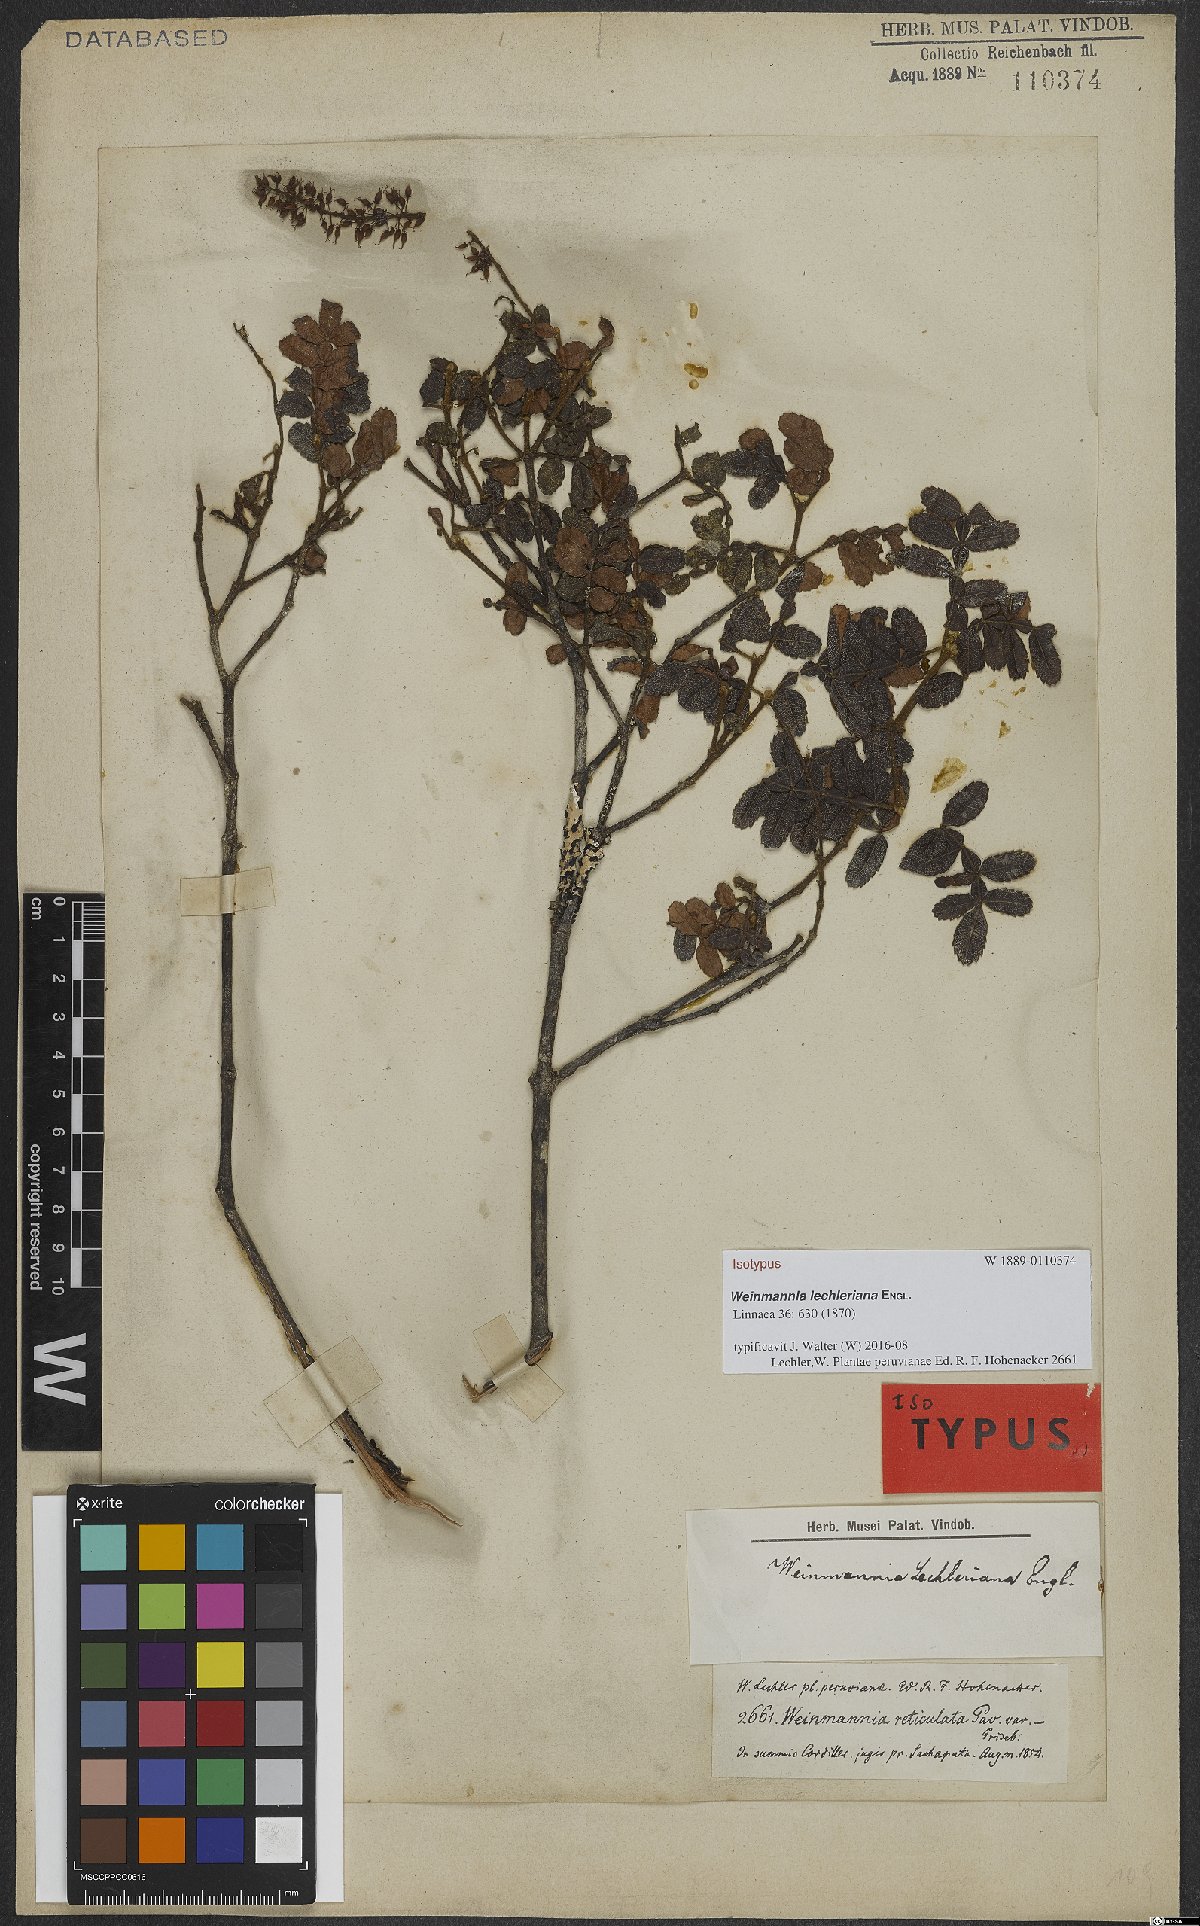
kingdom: Plantae
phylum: Tracheophyta
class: Magnoliopsida
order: Oxalidales
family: Cunoniaceae
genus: Weinmannia
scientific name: Weinmannia lechleriana
